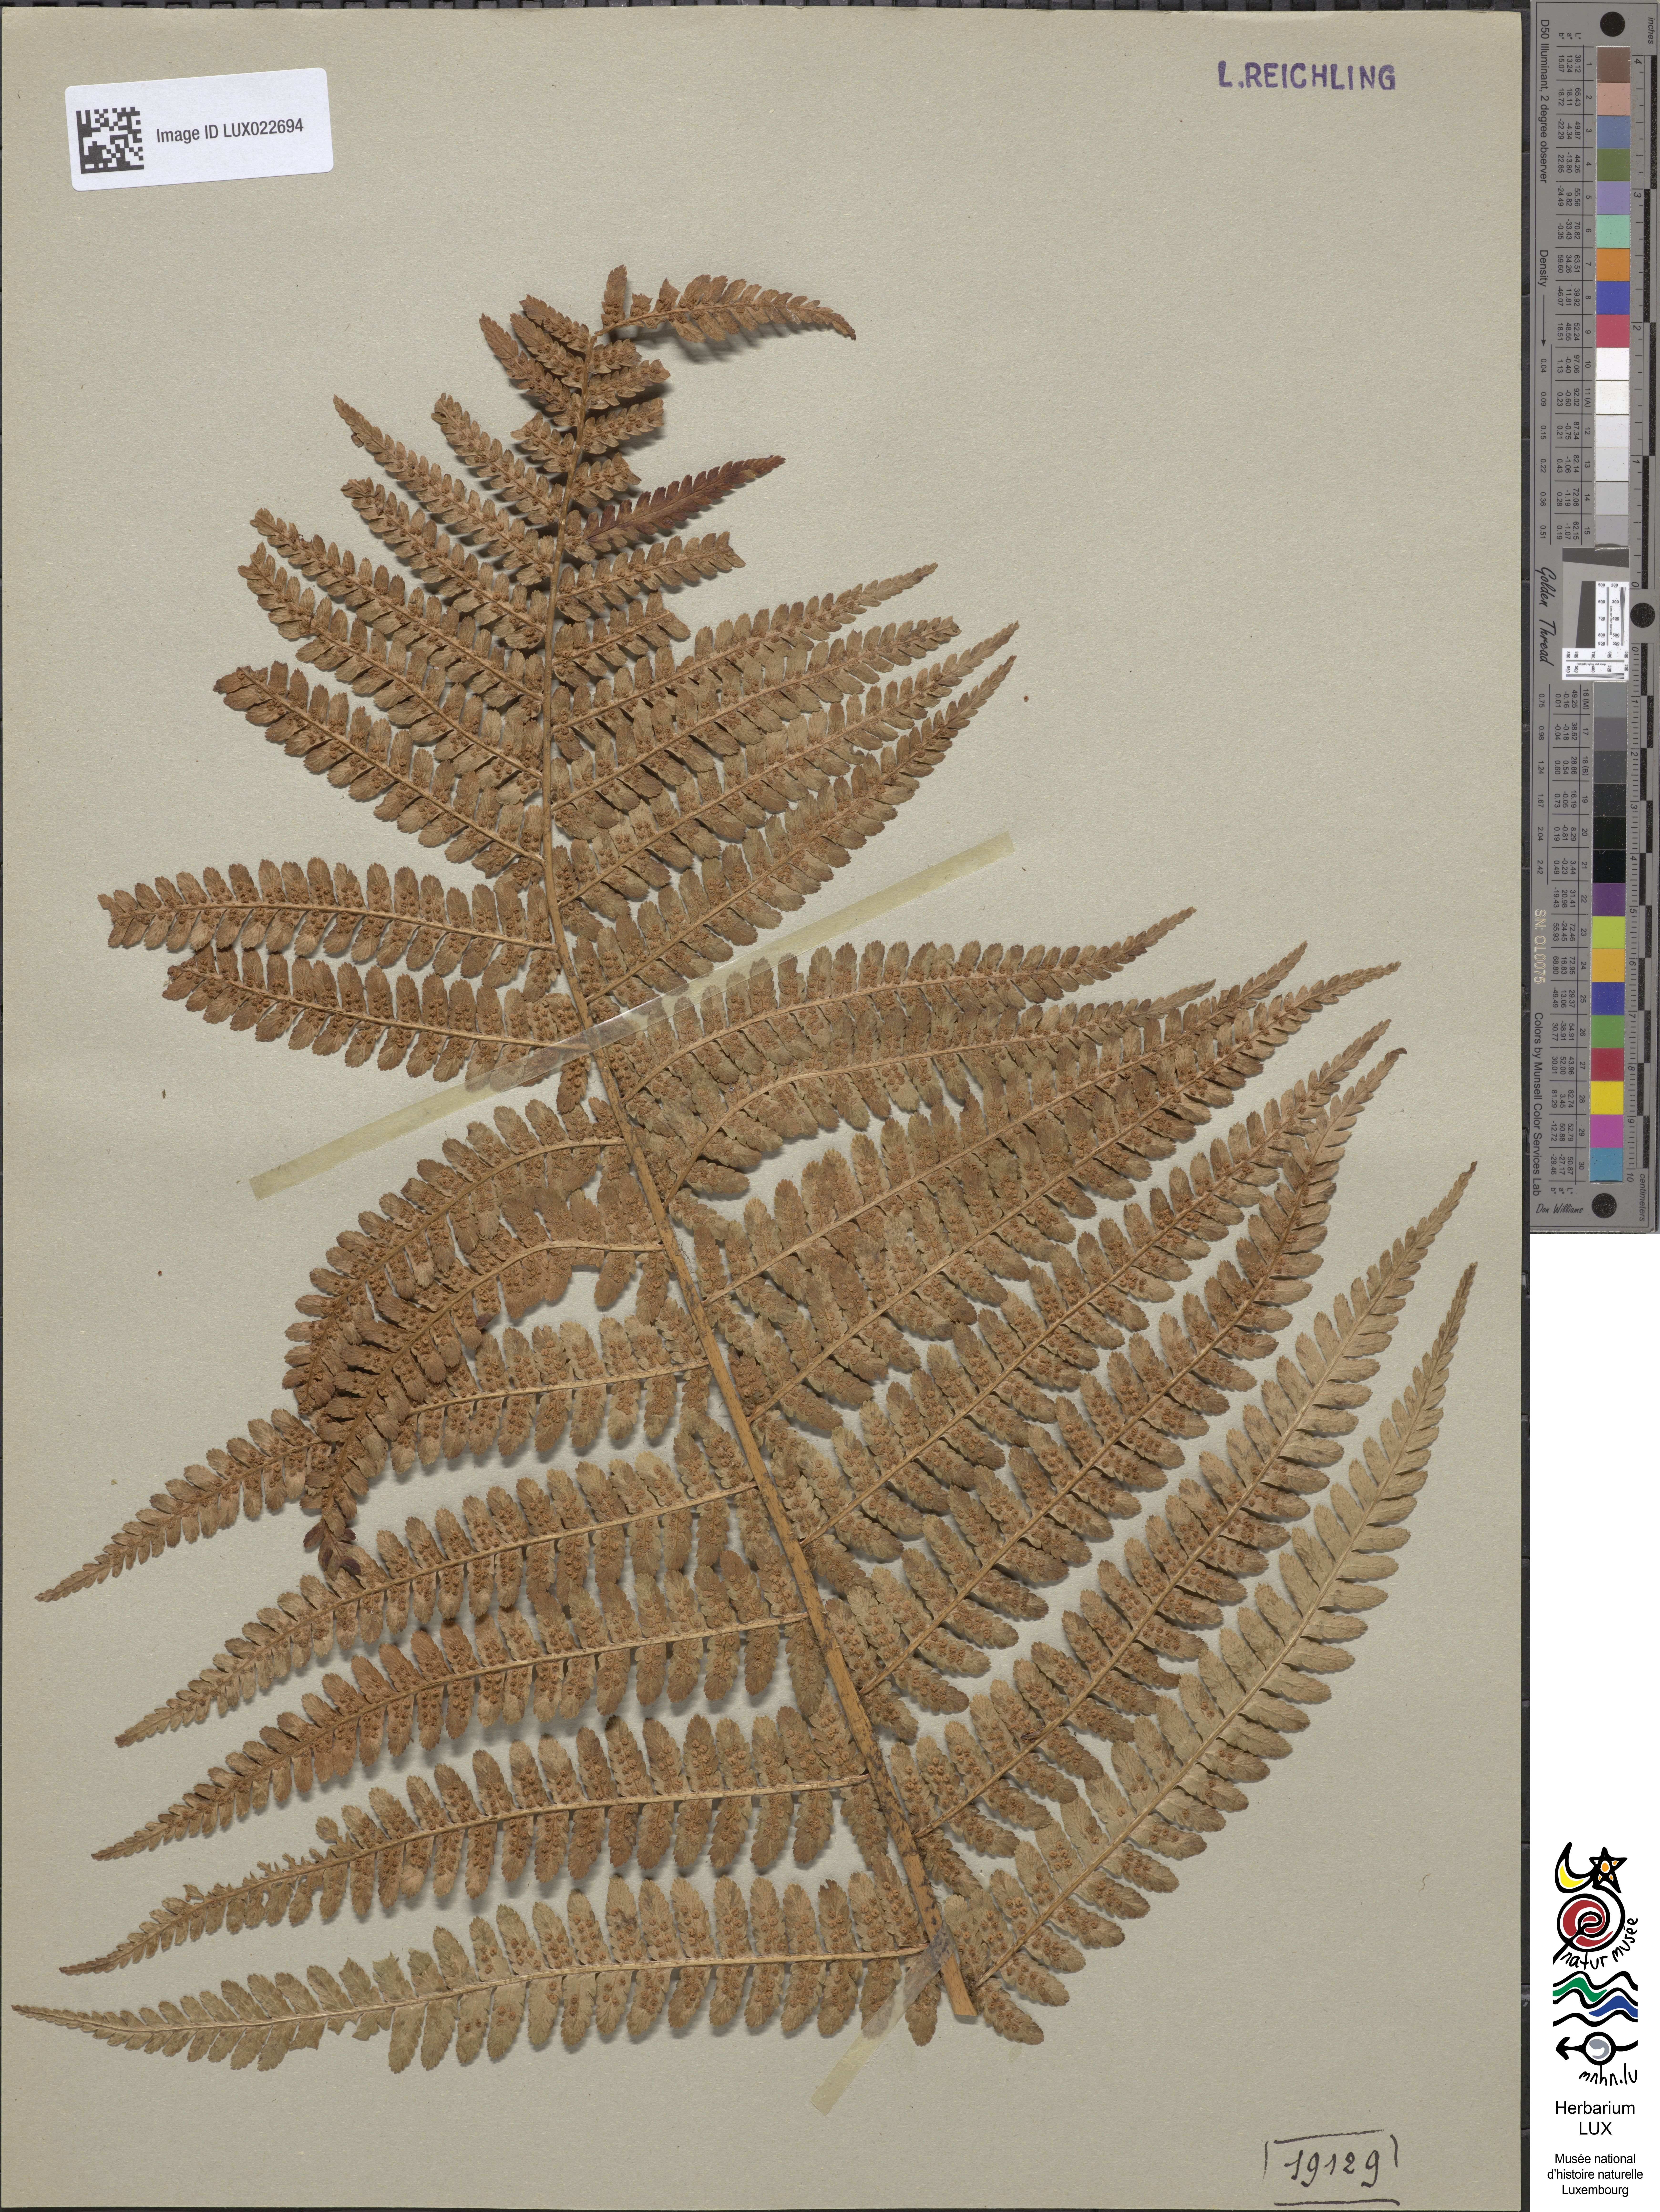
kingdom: Plantae
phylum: Tracheophyta
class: Polypodiopsida
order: Polypodiales
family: Dryopteridaceae
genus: Dryopteris
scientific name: Dryopteris
